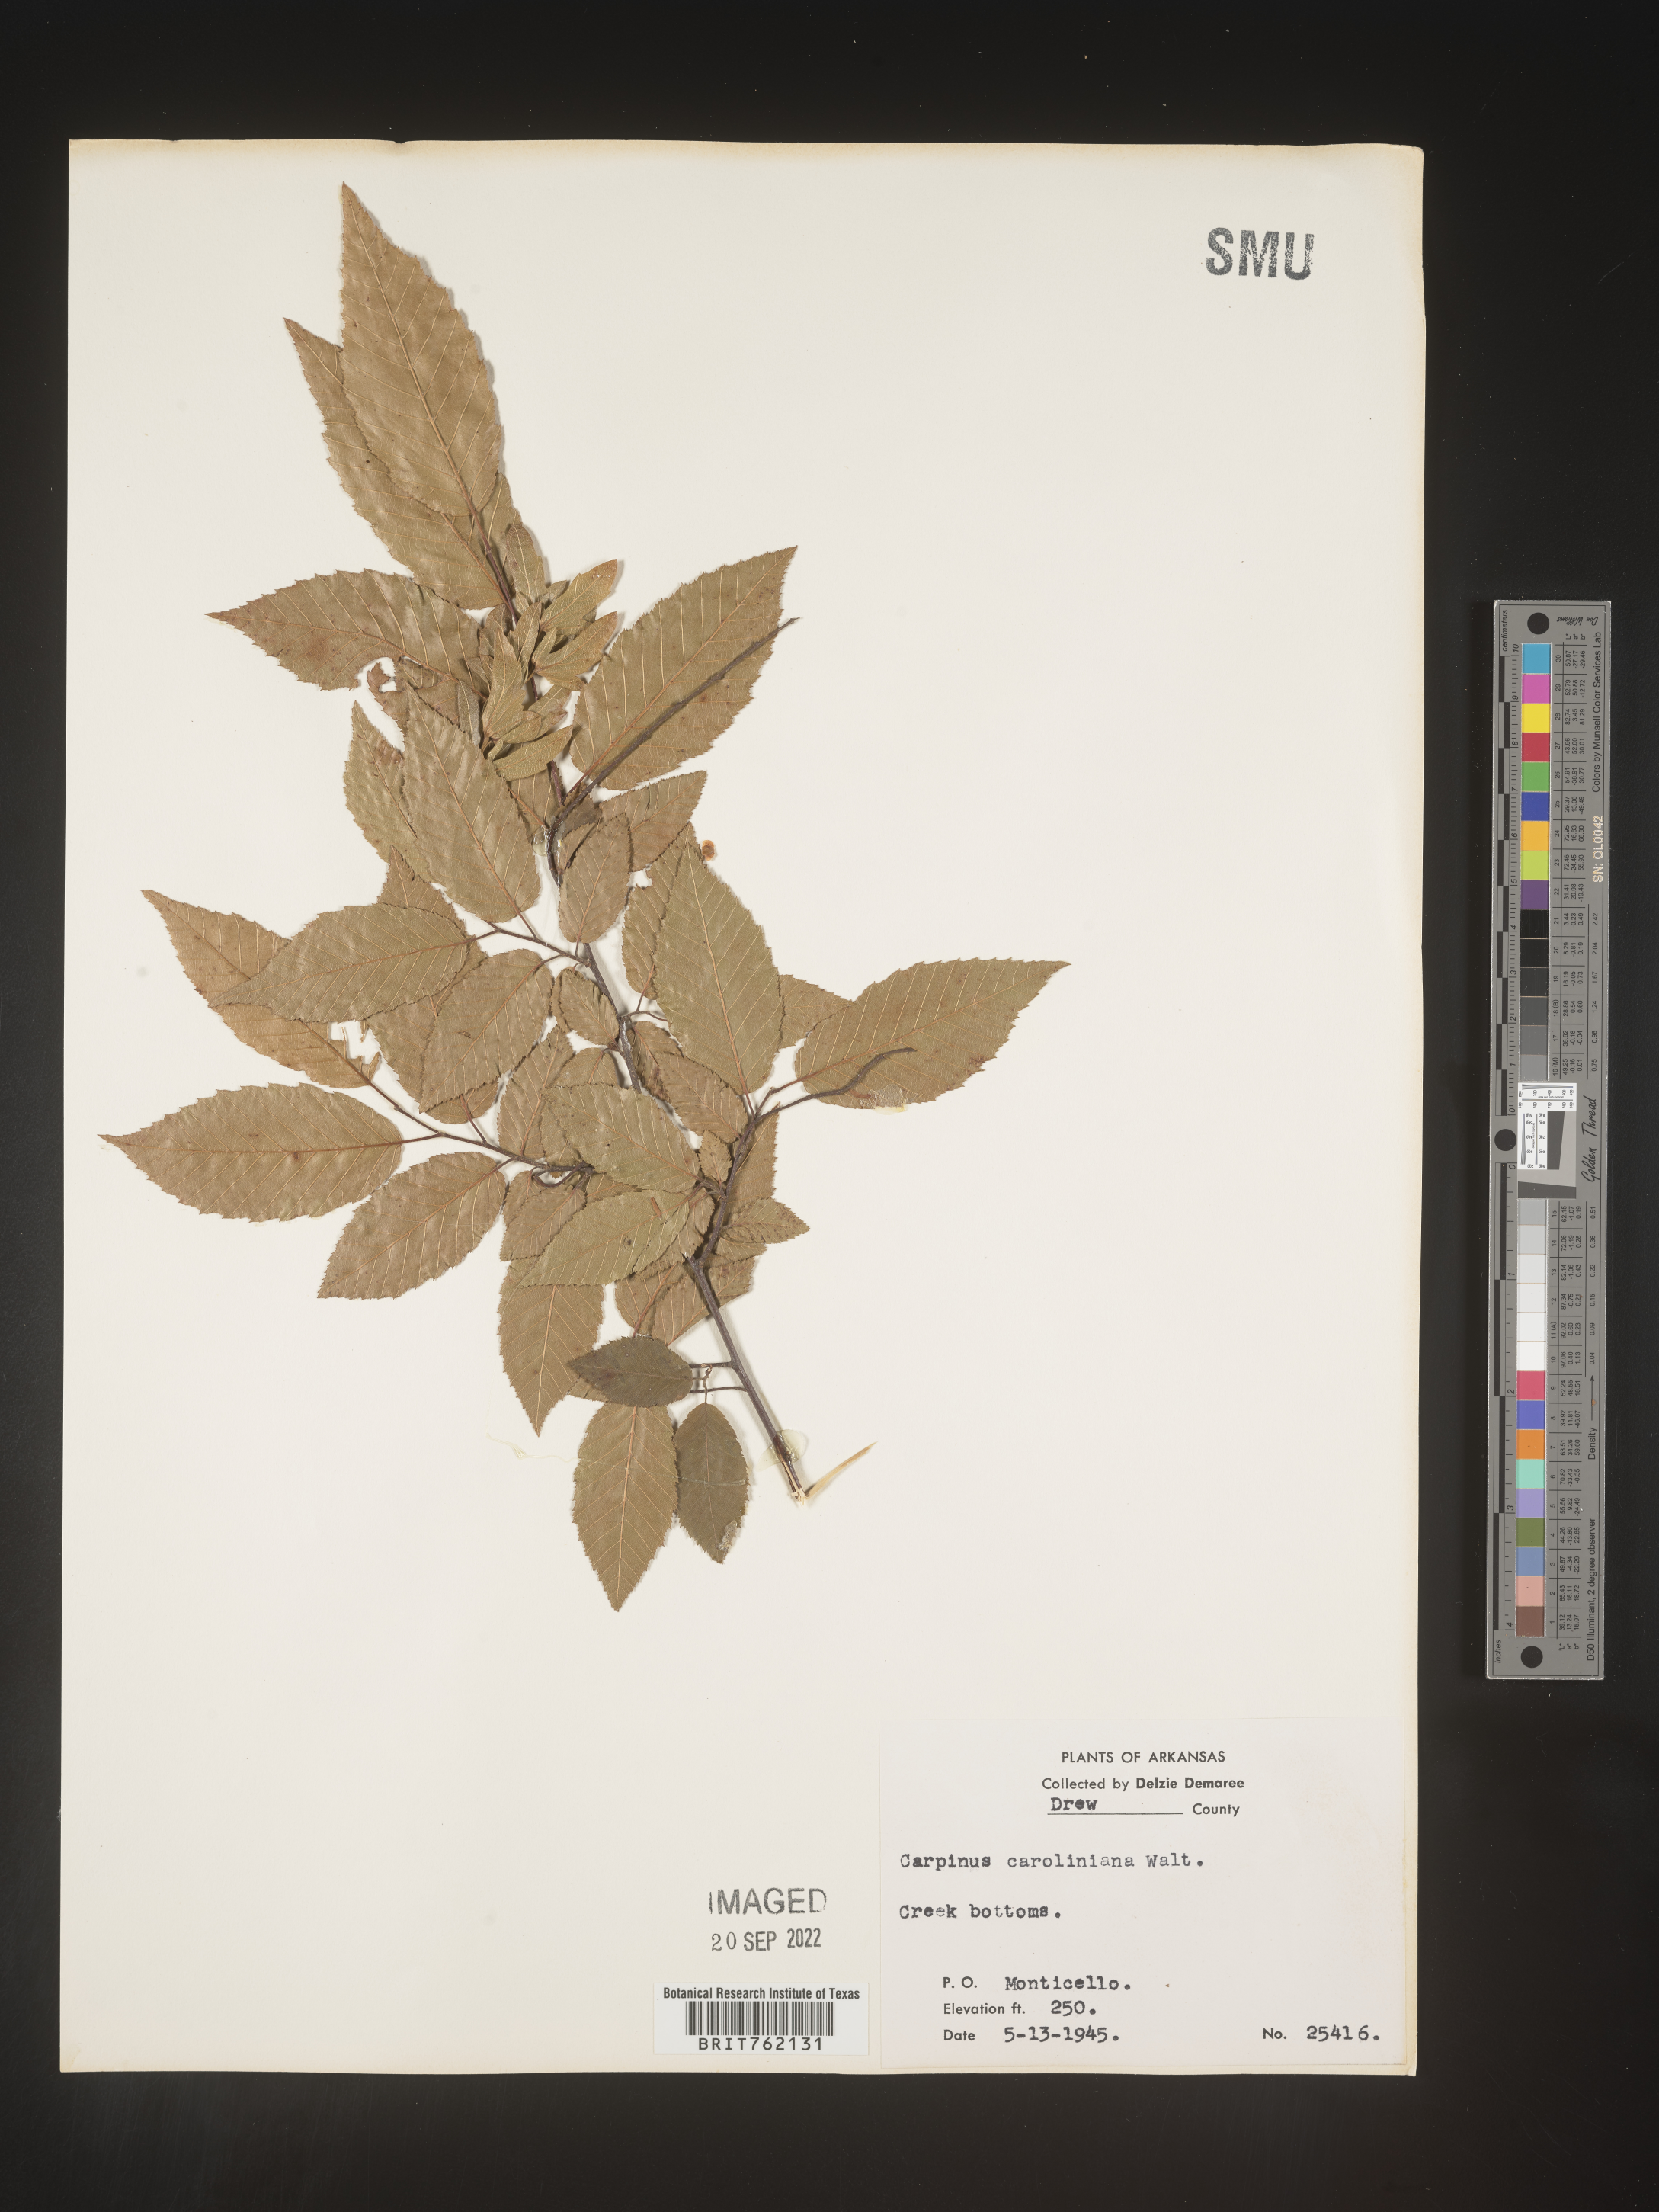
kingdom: Plantae
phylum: Tracheophyta
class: Magnoliopsida
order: Fagales
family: Betulaceae
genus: Carpinus
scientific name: Carpinus caroliniana
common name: American hornbeam
